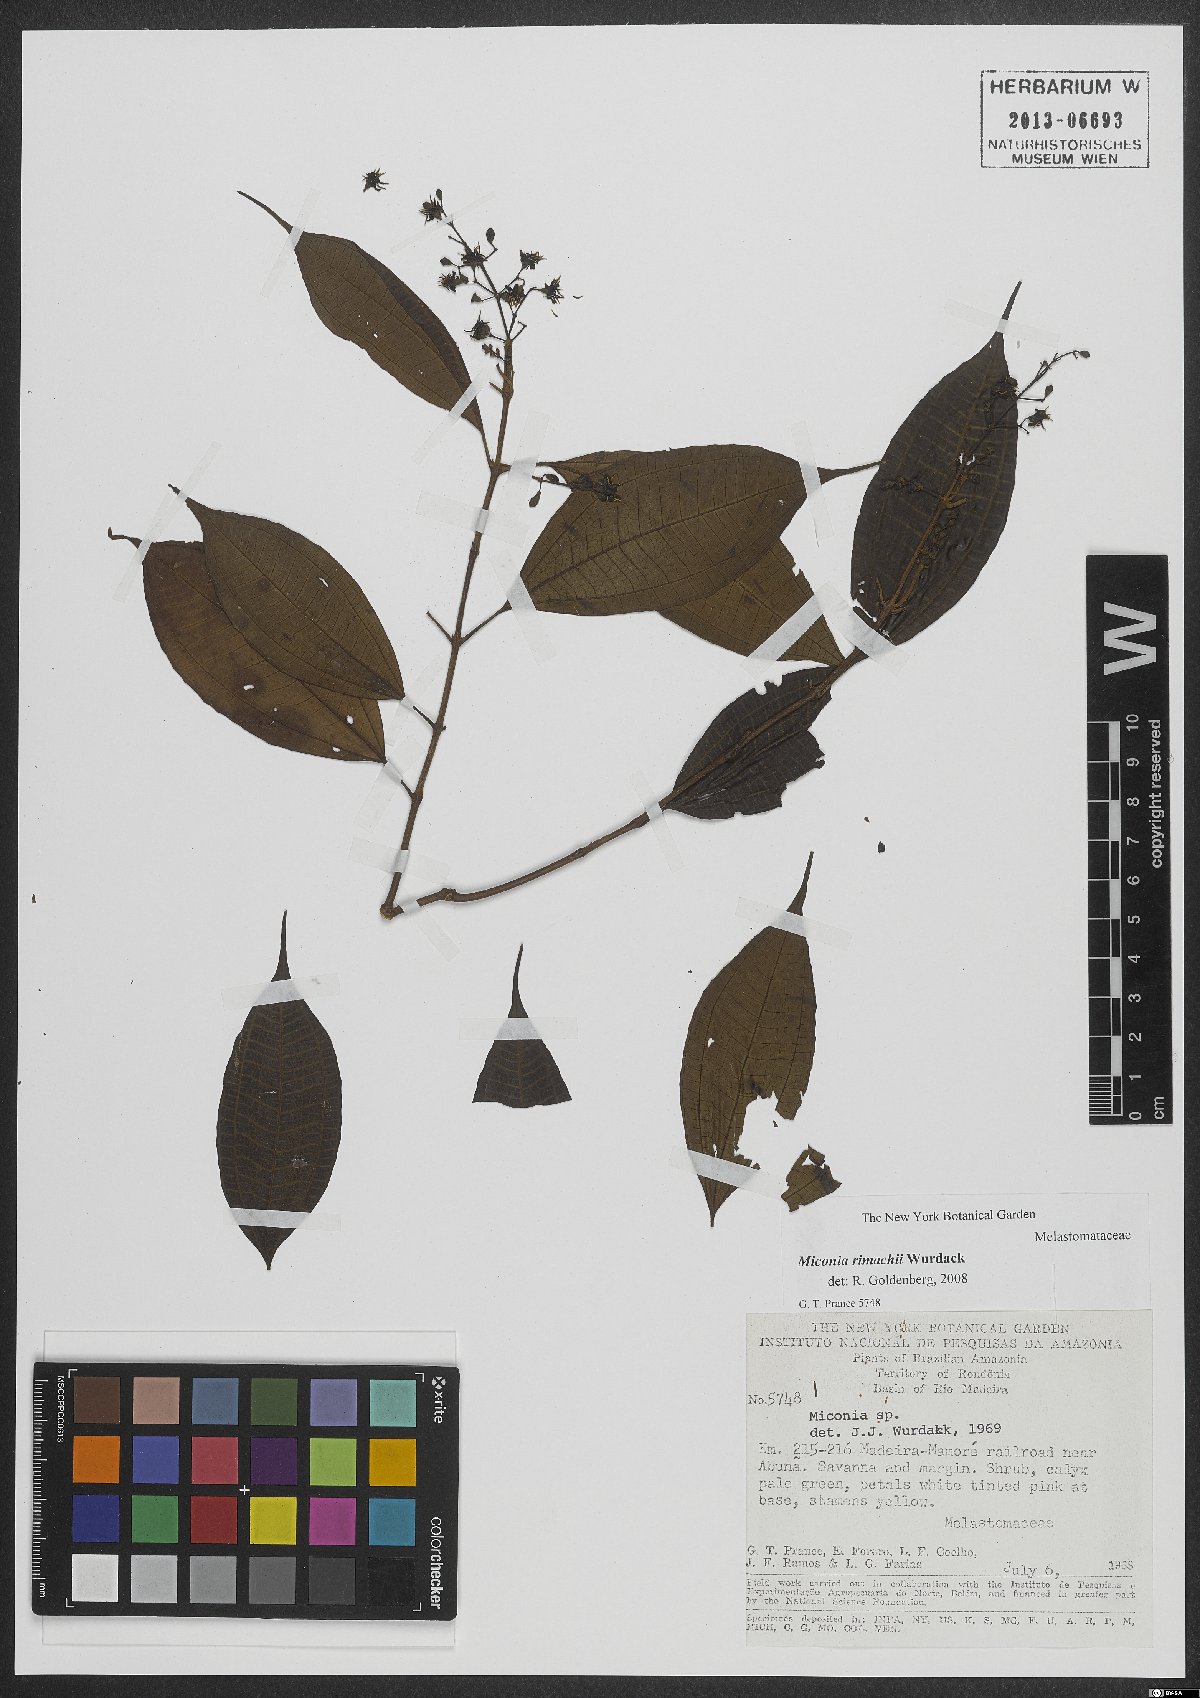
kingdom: Plantae
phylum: Tracheophyta
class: Magnoliopsida
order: Myrtales
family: Melastomataceae
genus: Miconia
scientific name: Miconia rimachii
